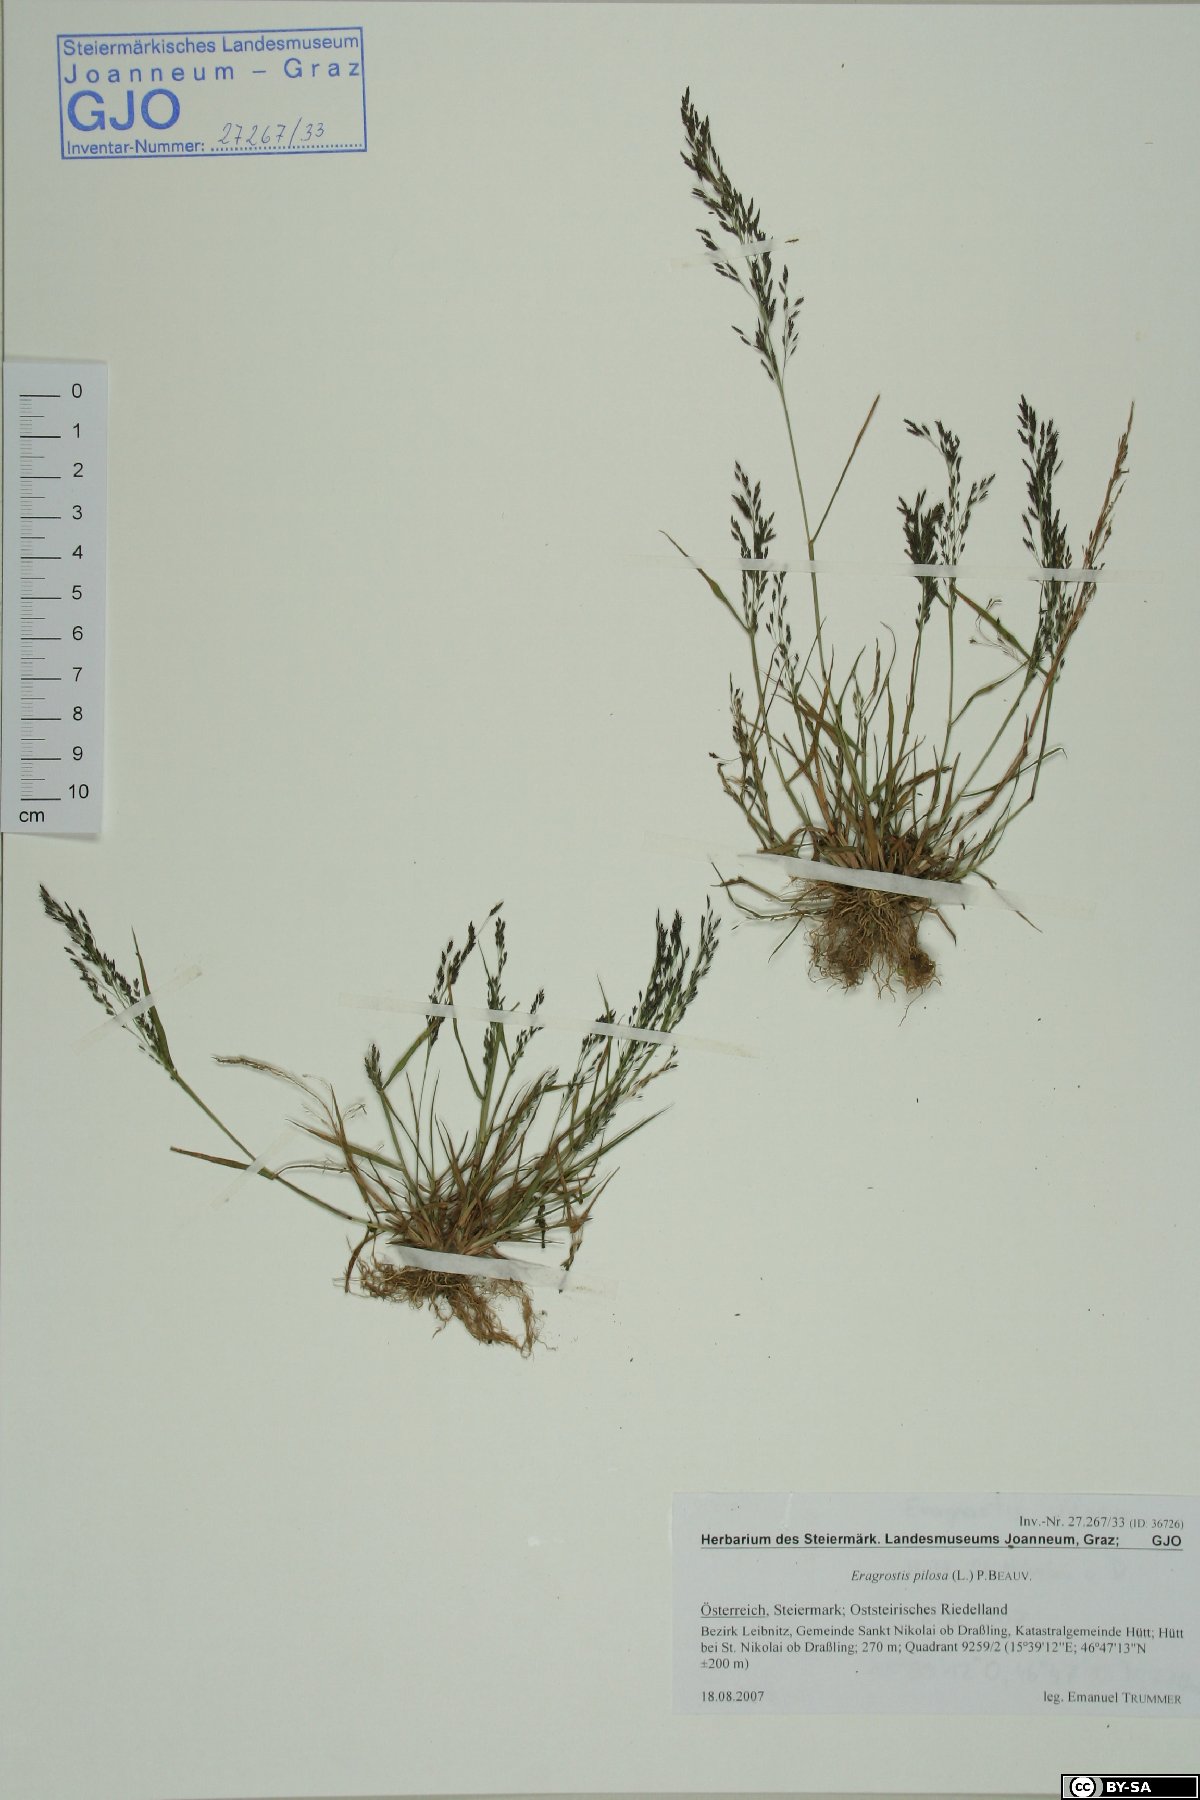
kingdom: Plantae
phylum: Tracheophyta
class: Liliopsida
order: Poales
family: Poaceae
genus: Eragrostis
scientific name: Eragrostis pilosa
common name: Indian lovegrass
